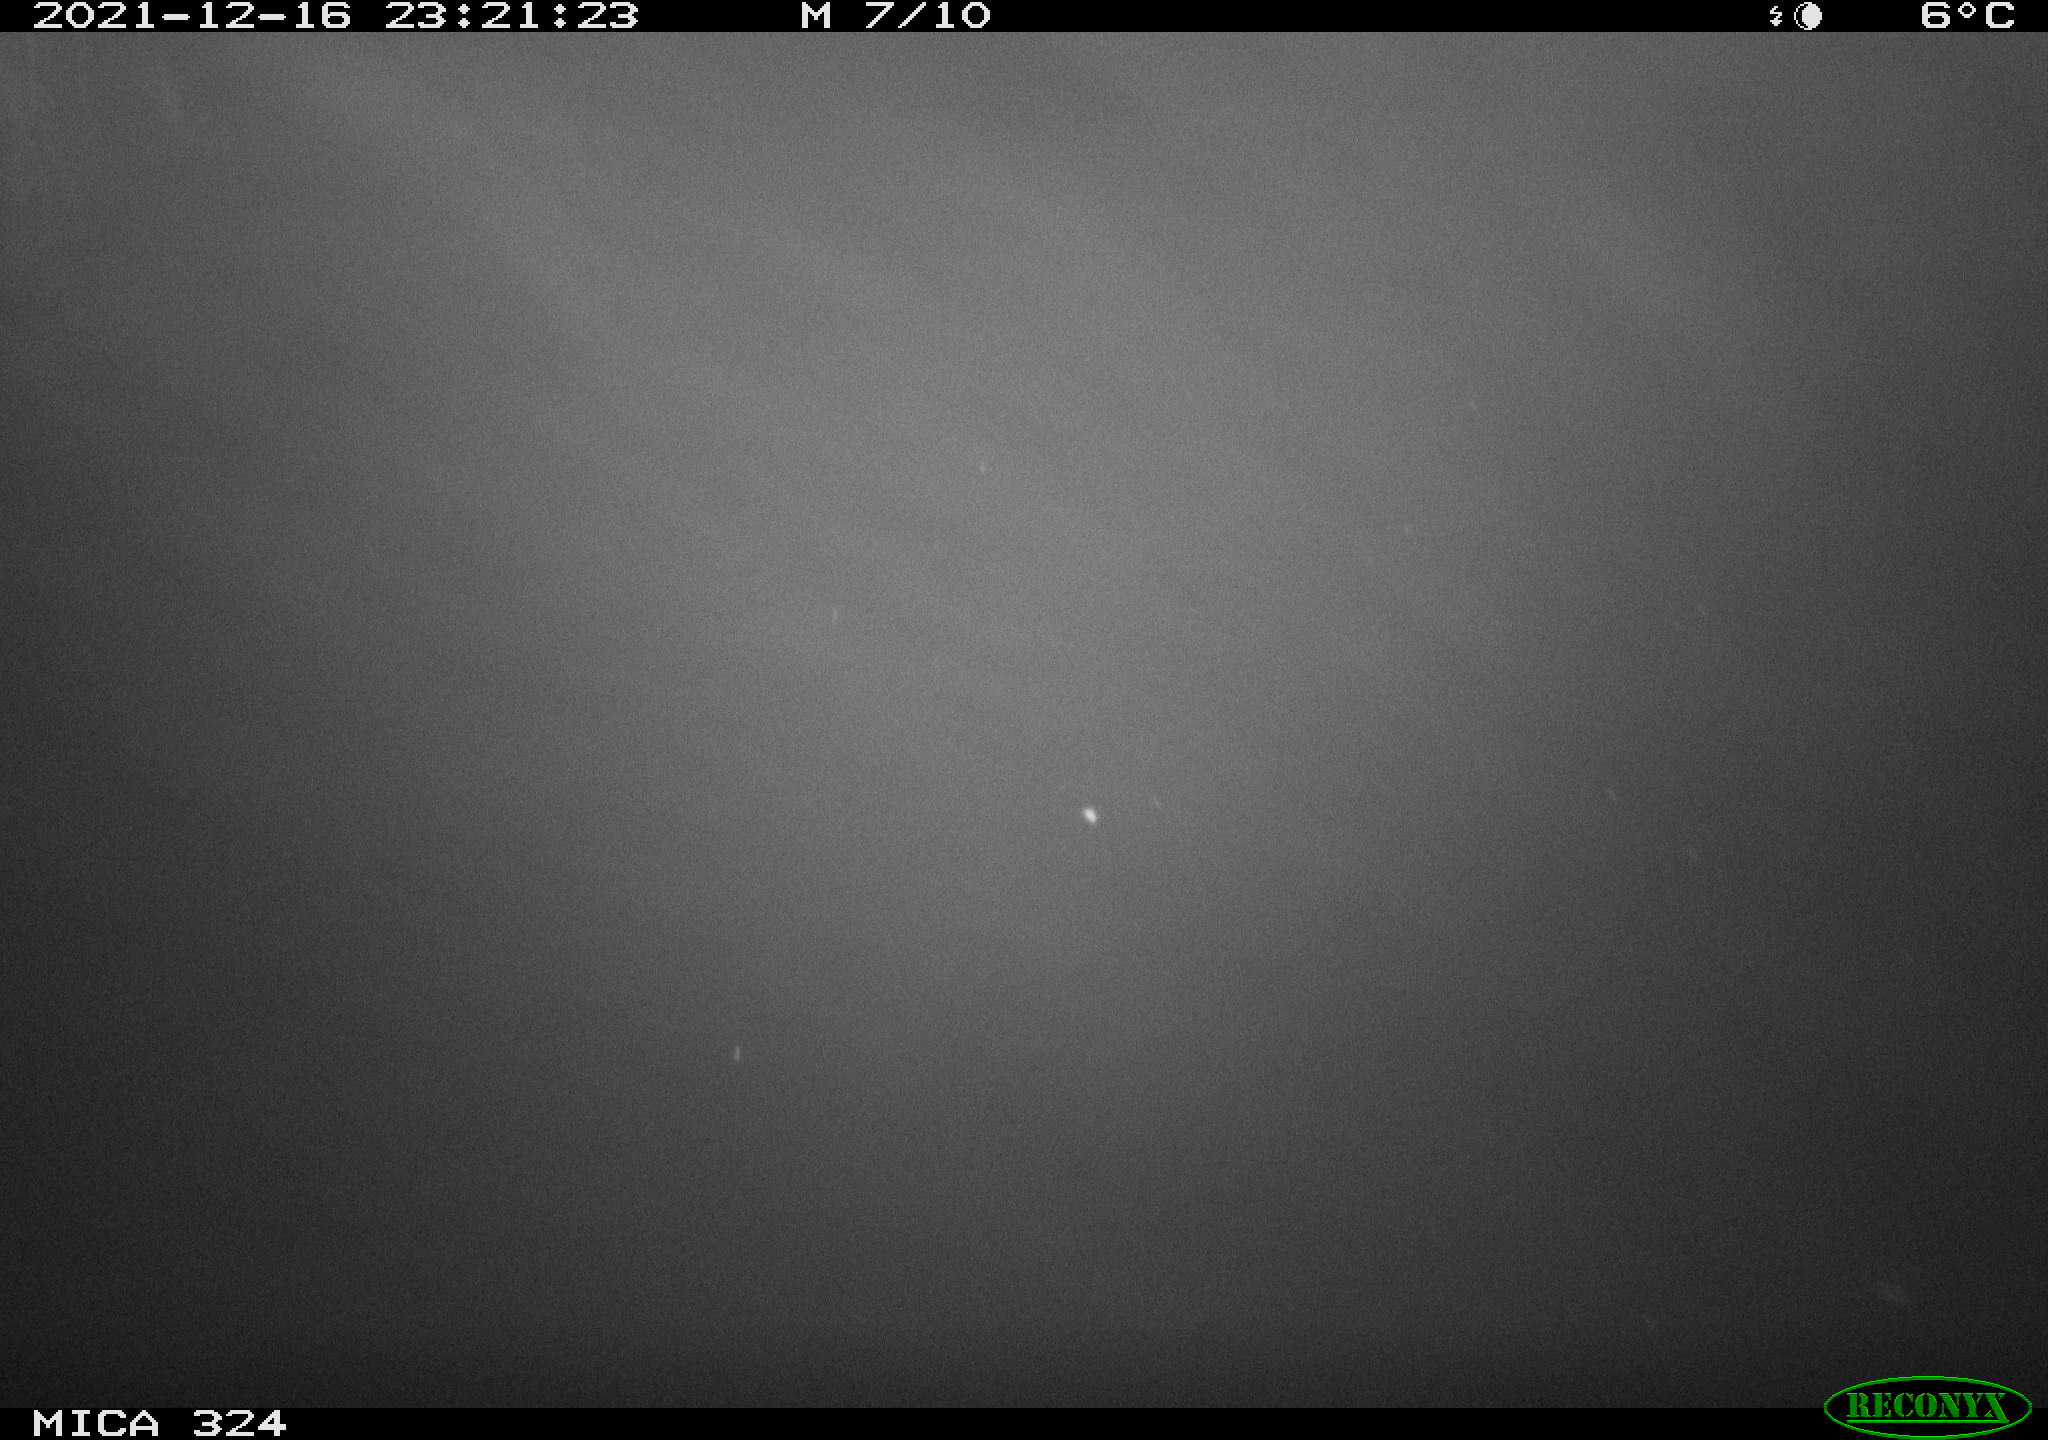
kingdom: Animalia
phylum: Chordata
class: Mammalia
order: Rodentia
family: Cricetidae
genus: Ondatra
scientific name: Ondatra zibethicus
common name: Muskrat
